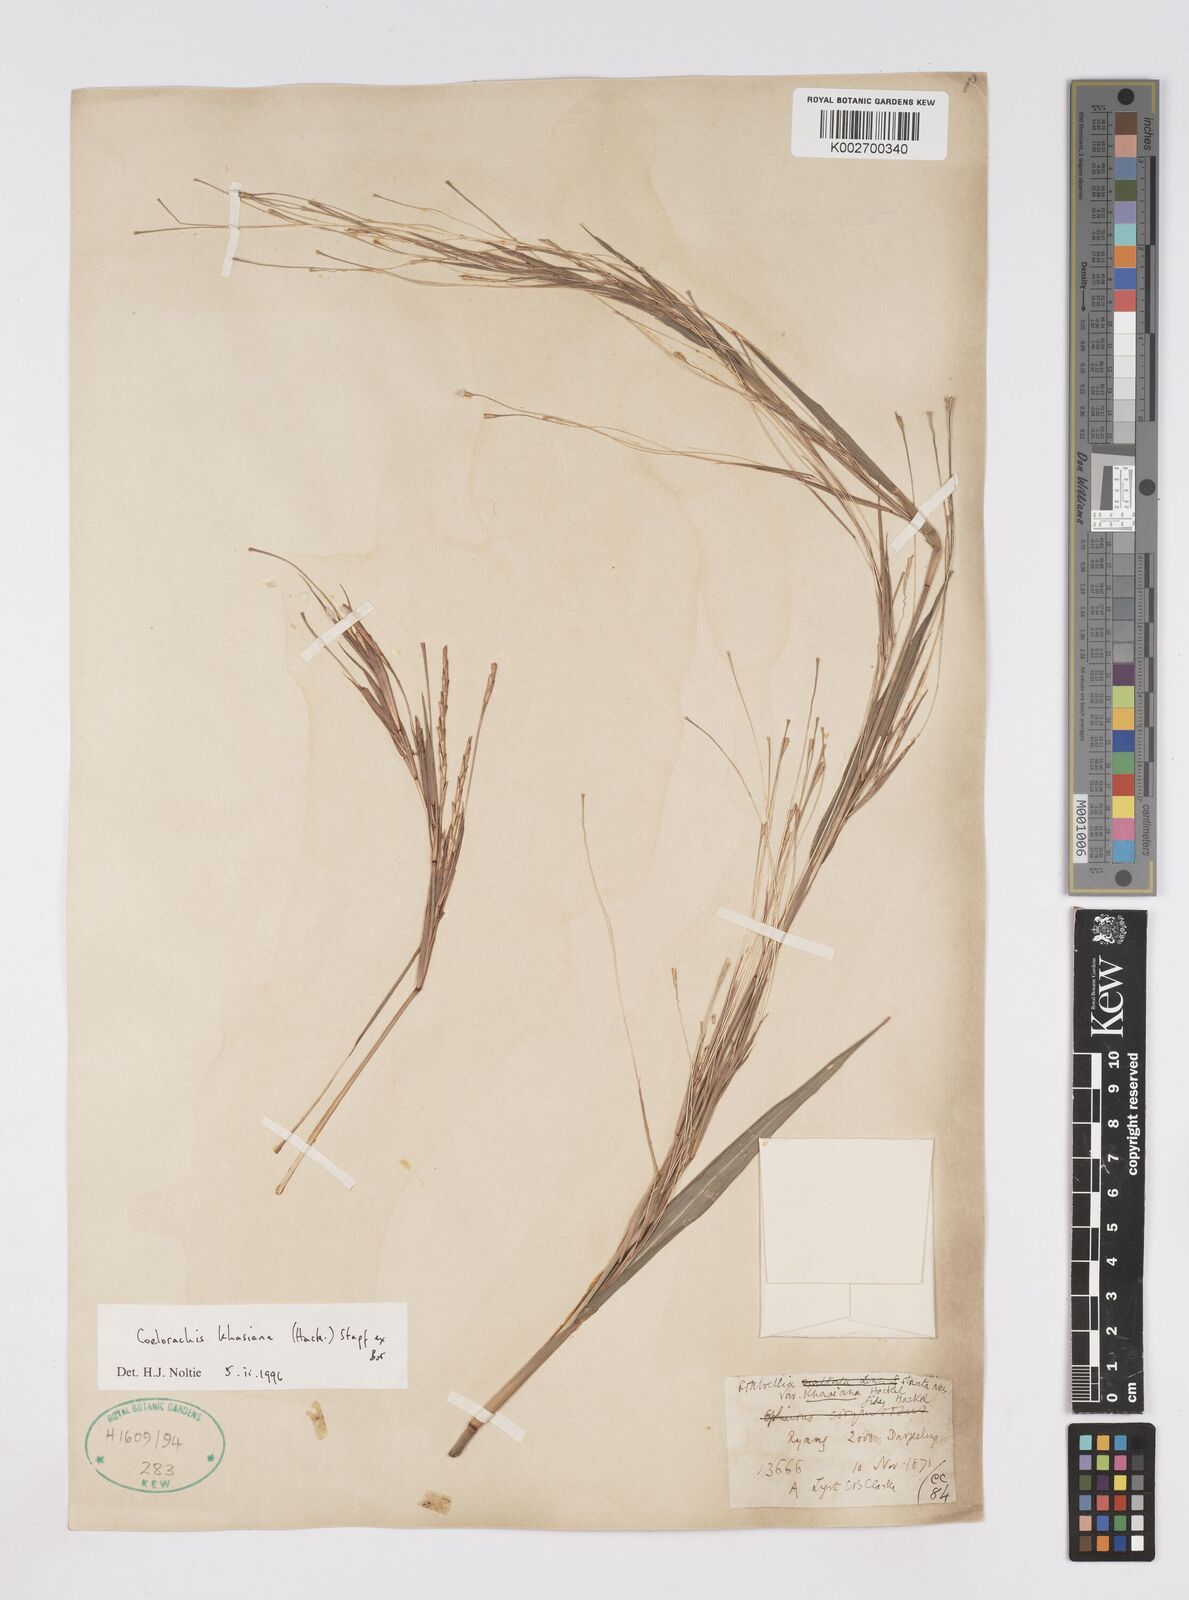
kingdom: Plantae
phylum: Tracheophyta
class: Liliopsida
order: Poales
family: Poaceae
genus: Rottboellia
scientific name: Rottboellia striata
